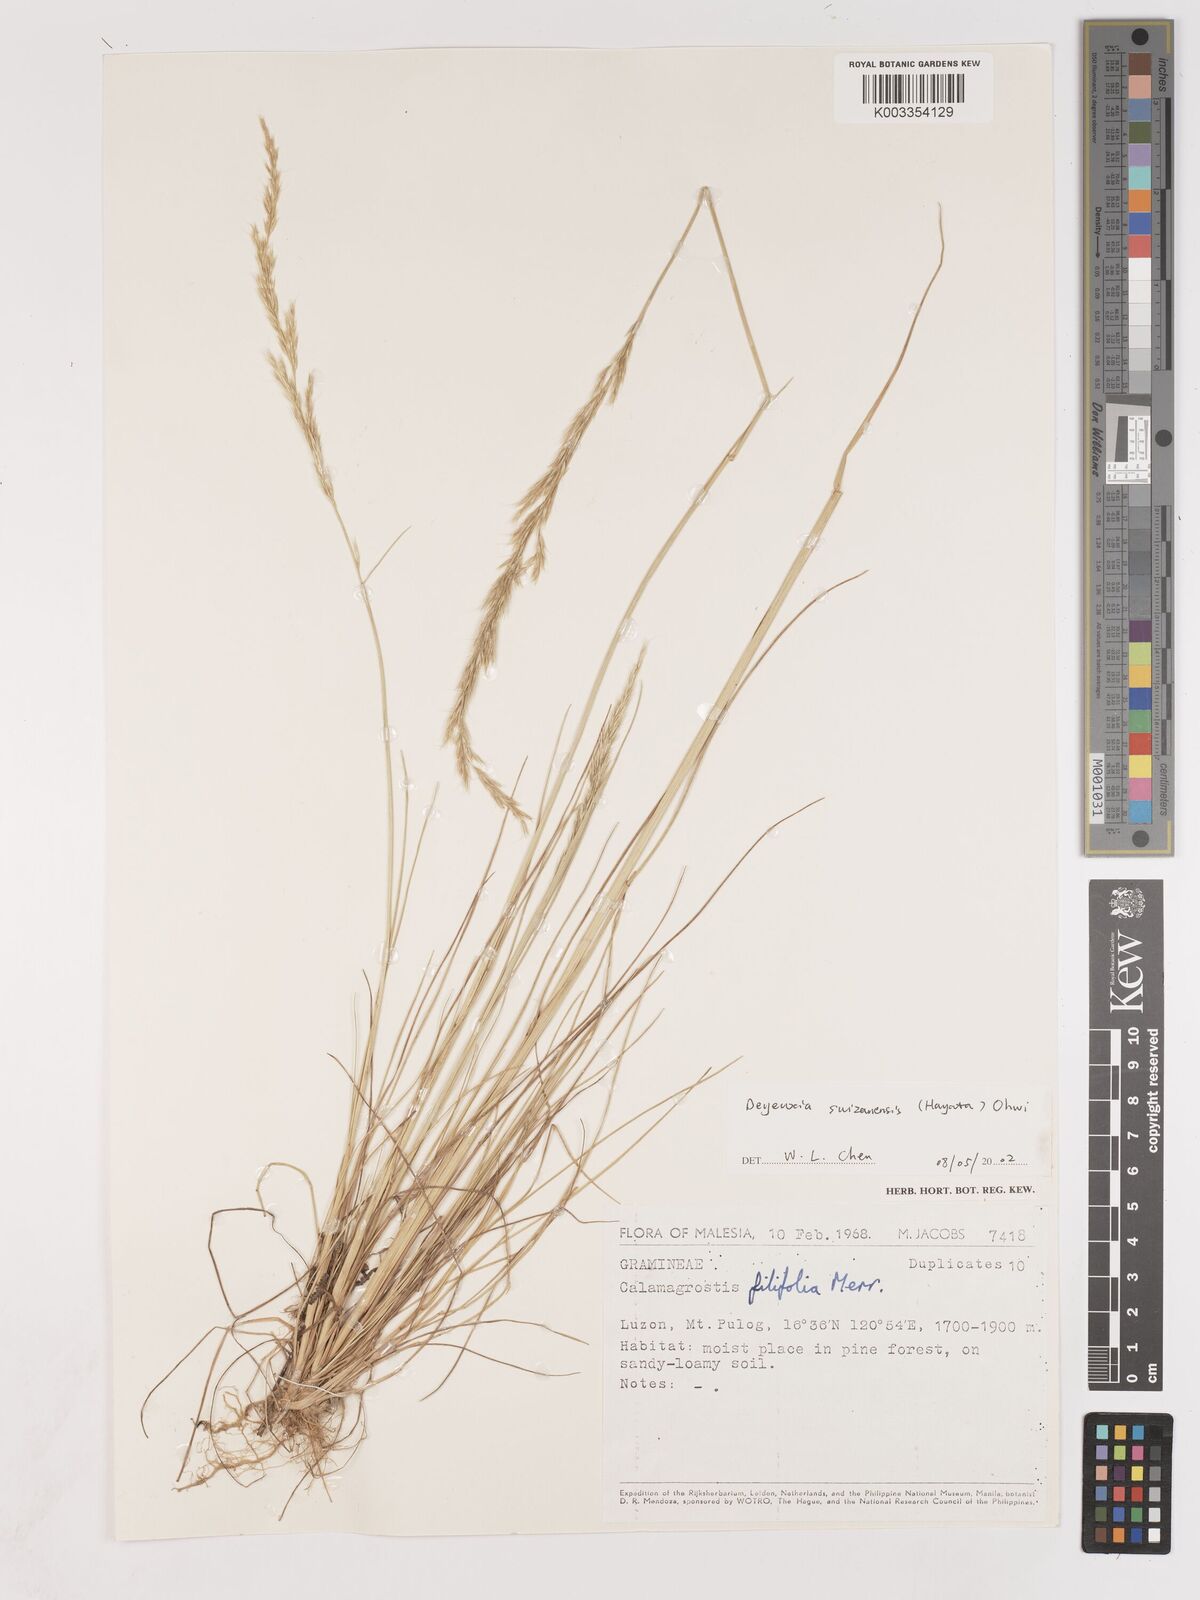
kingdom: Plantae
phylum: Tracheophyta
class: Liliopsida
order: Poales
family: Poaceae
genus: Calamagrostis
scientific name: Calamagrostis filifolia
